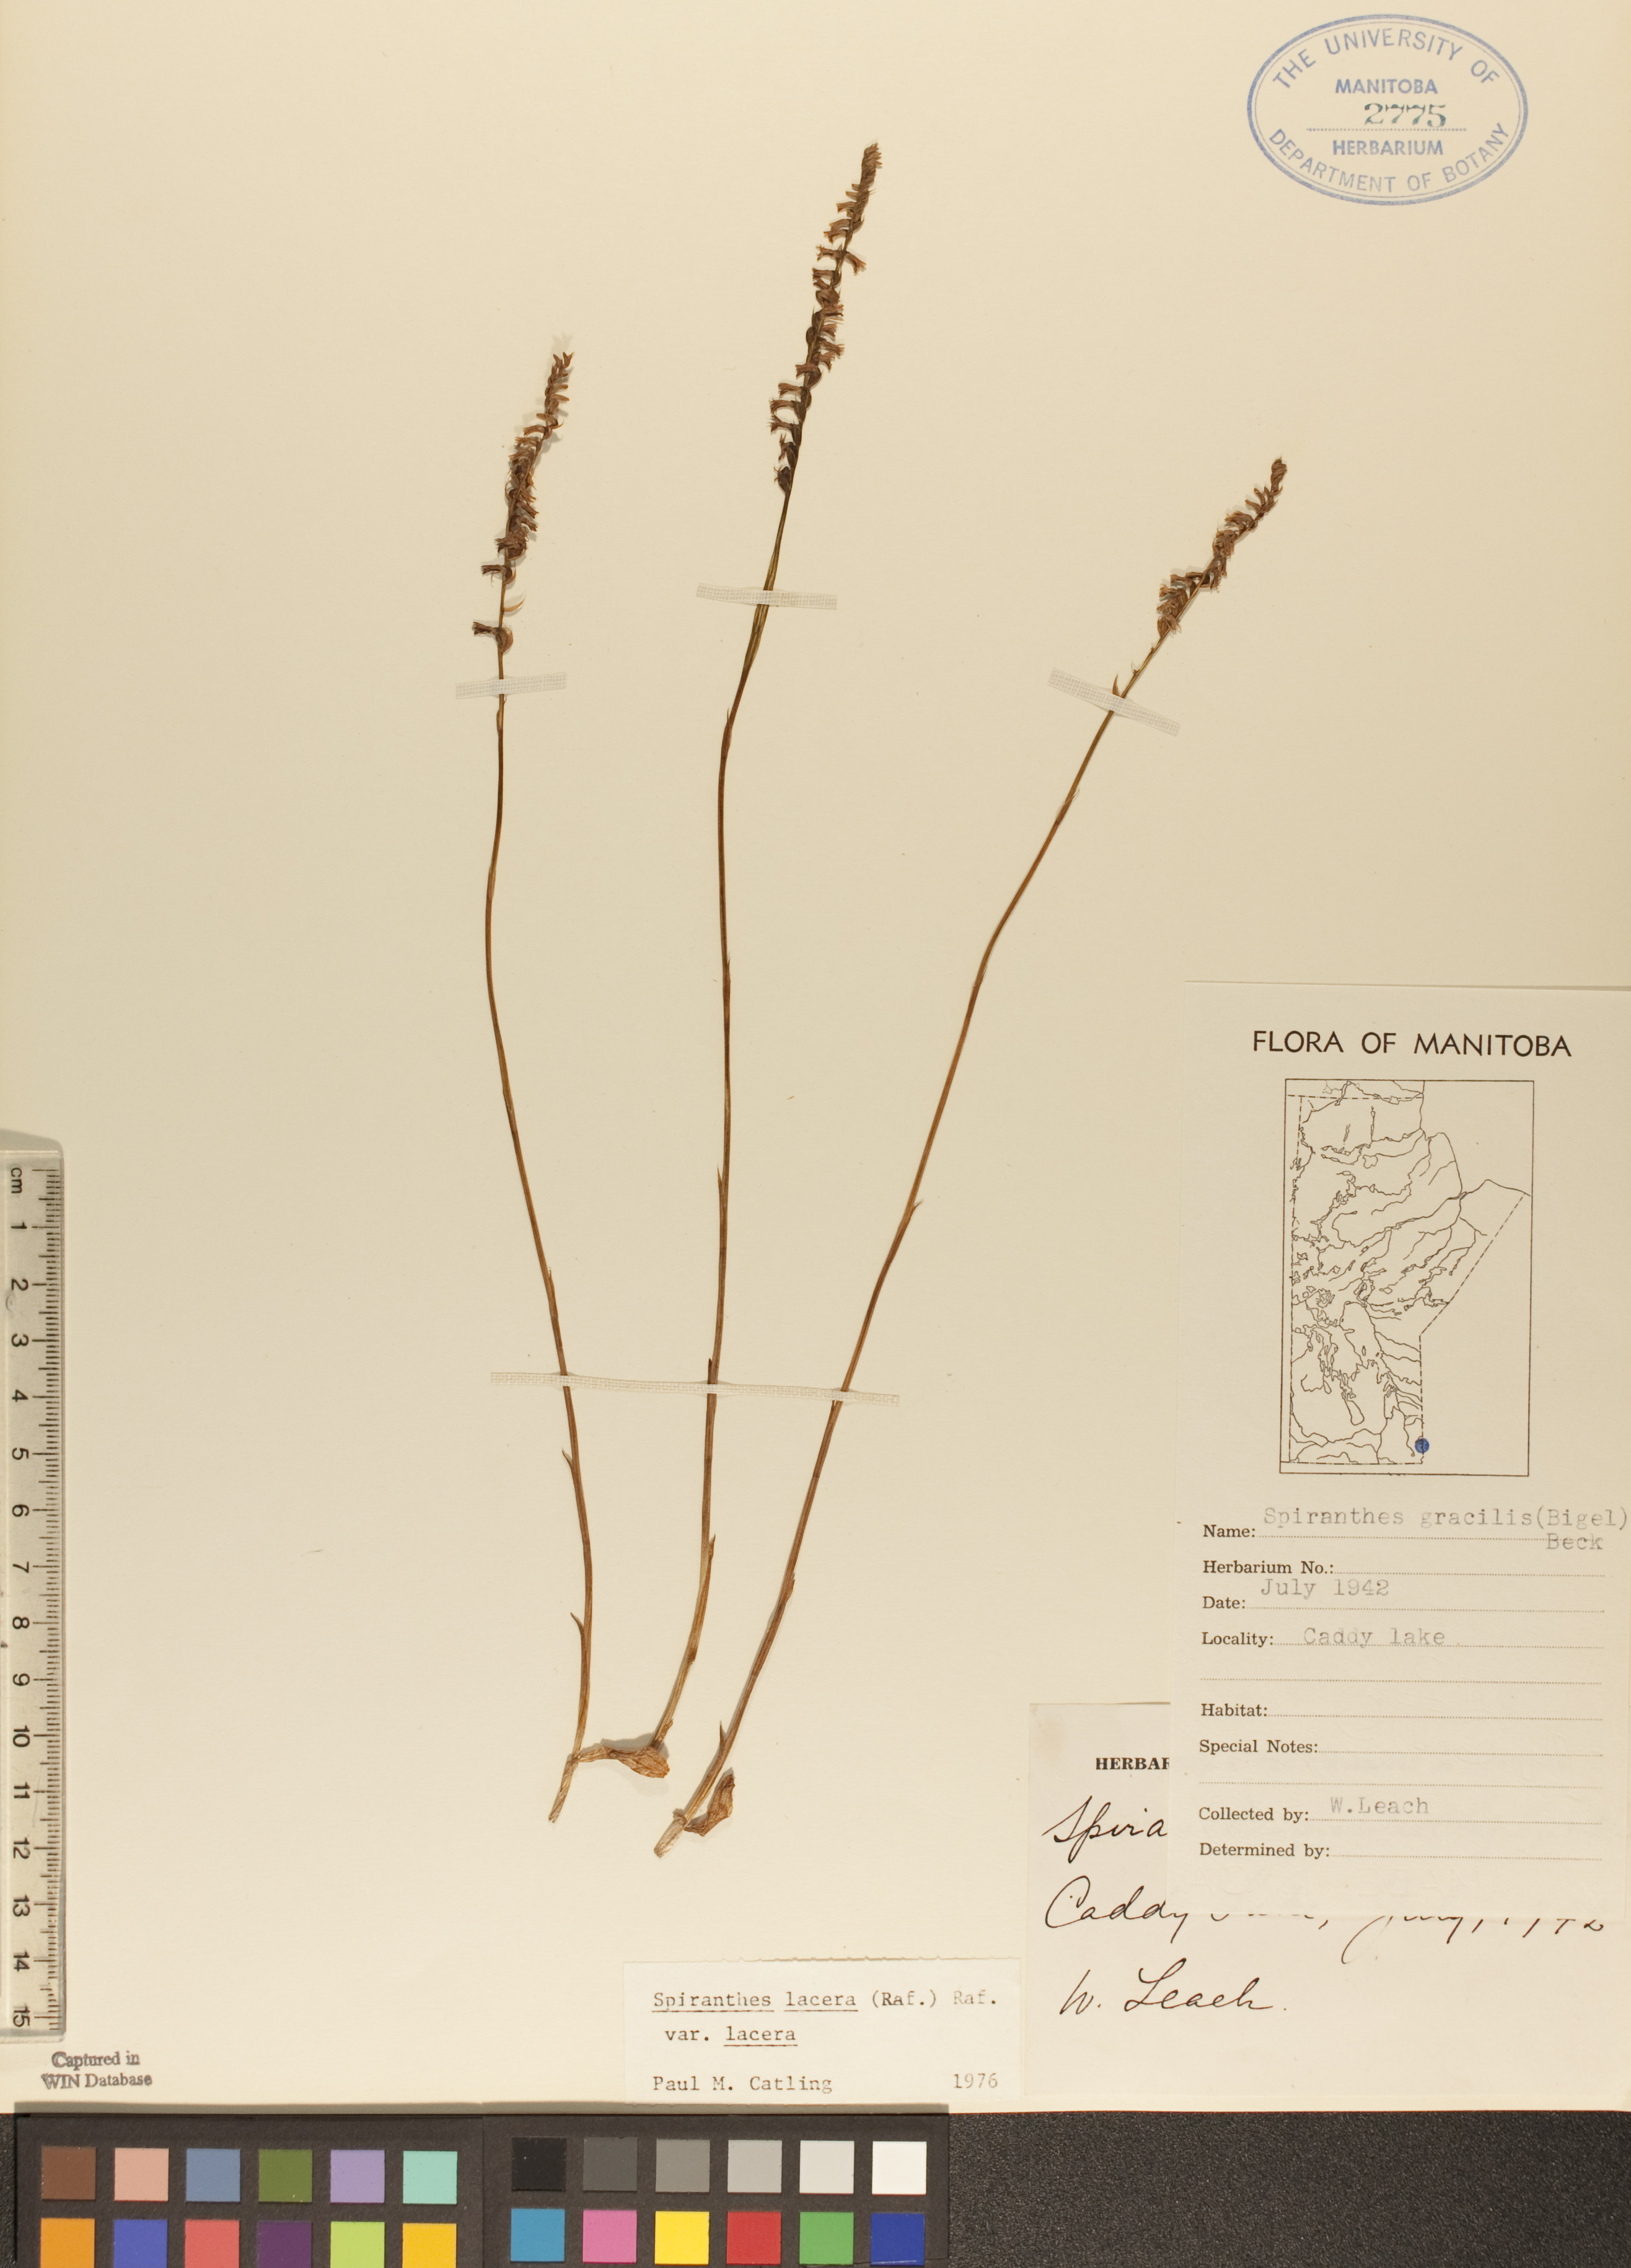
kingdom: Plantae
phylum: Tracheophyta
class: Liliopsida
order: Asparagales
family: Orchidaceae
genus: Spiranthes
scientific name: Spiranthes lacera
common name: Northern slender ladies'-tresses
